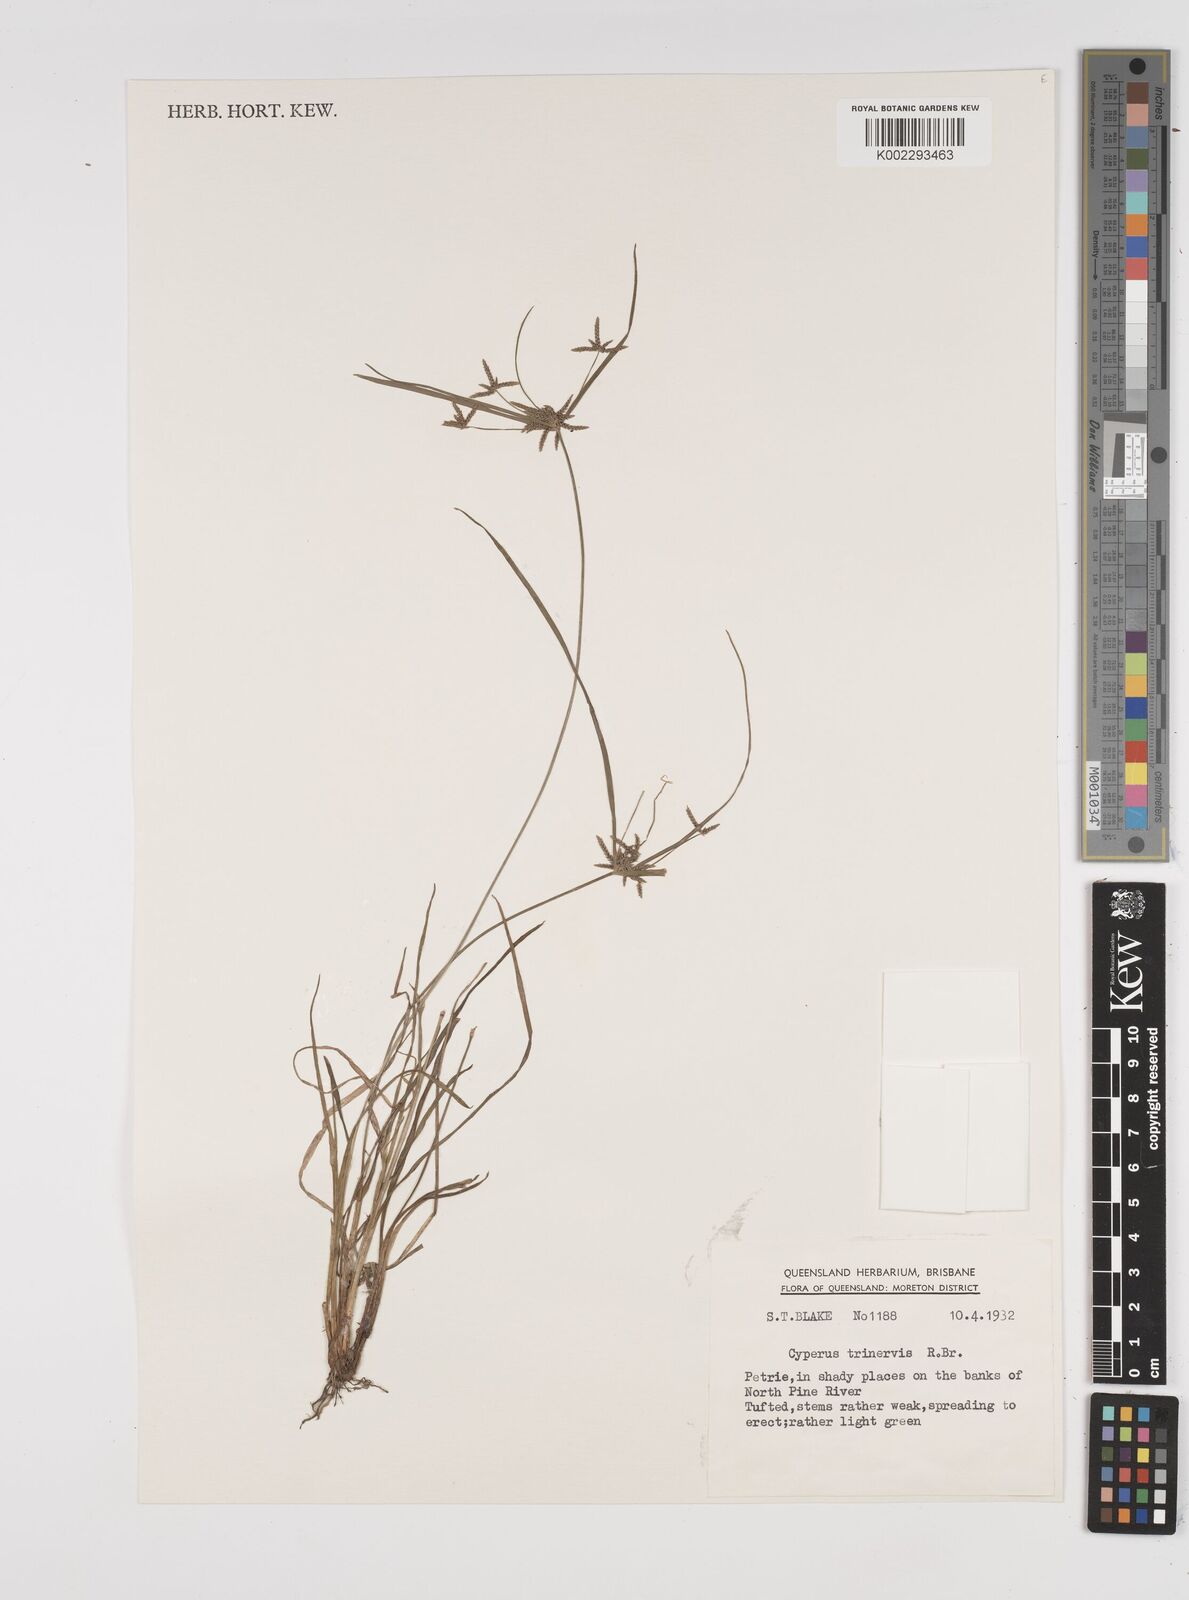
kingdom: Plantae
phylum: Tracheophyta
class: Liliopsida
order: Poales
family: Cyperaceae
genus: Cyperus
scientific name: Cyperus trinervis
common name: Australian flatsedge
